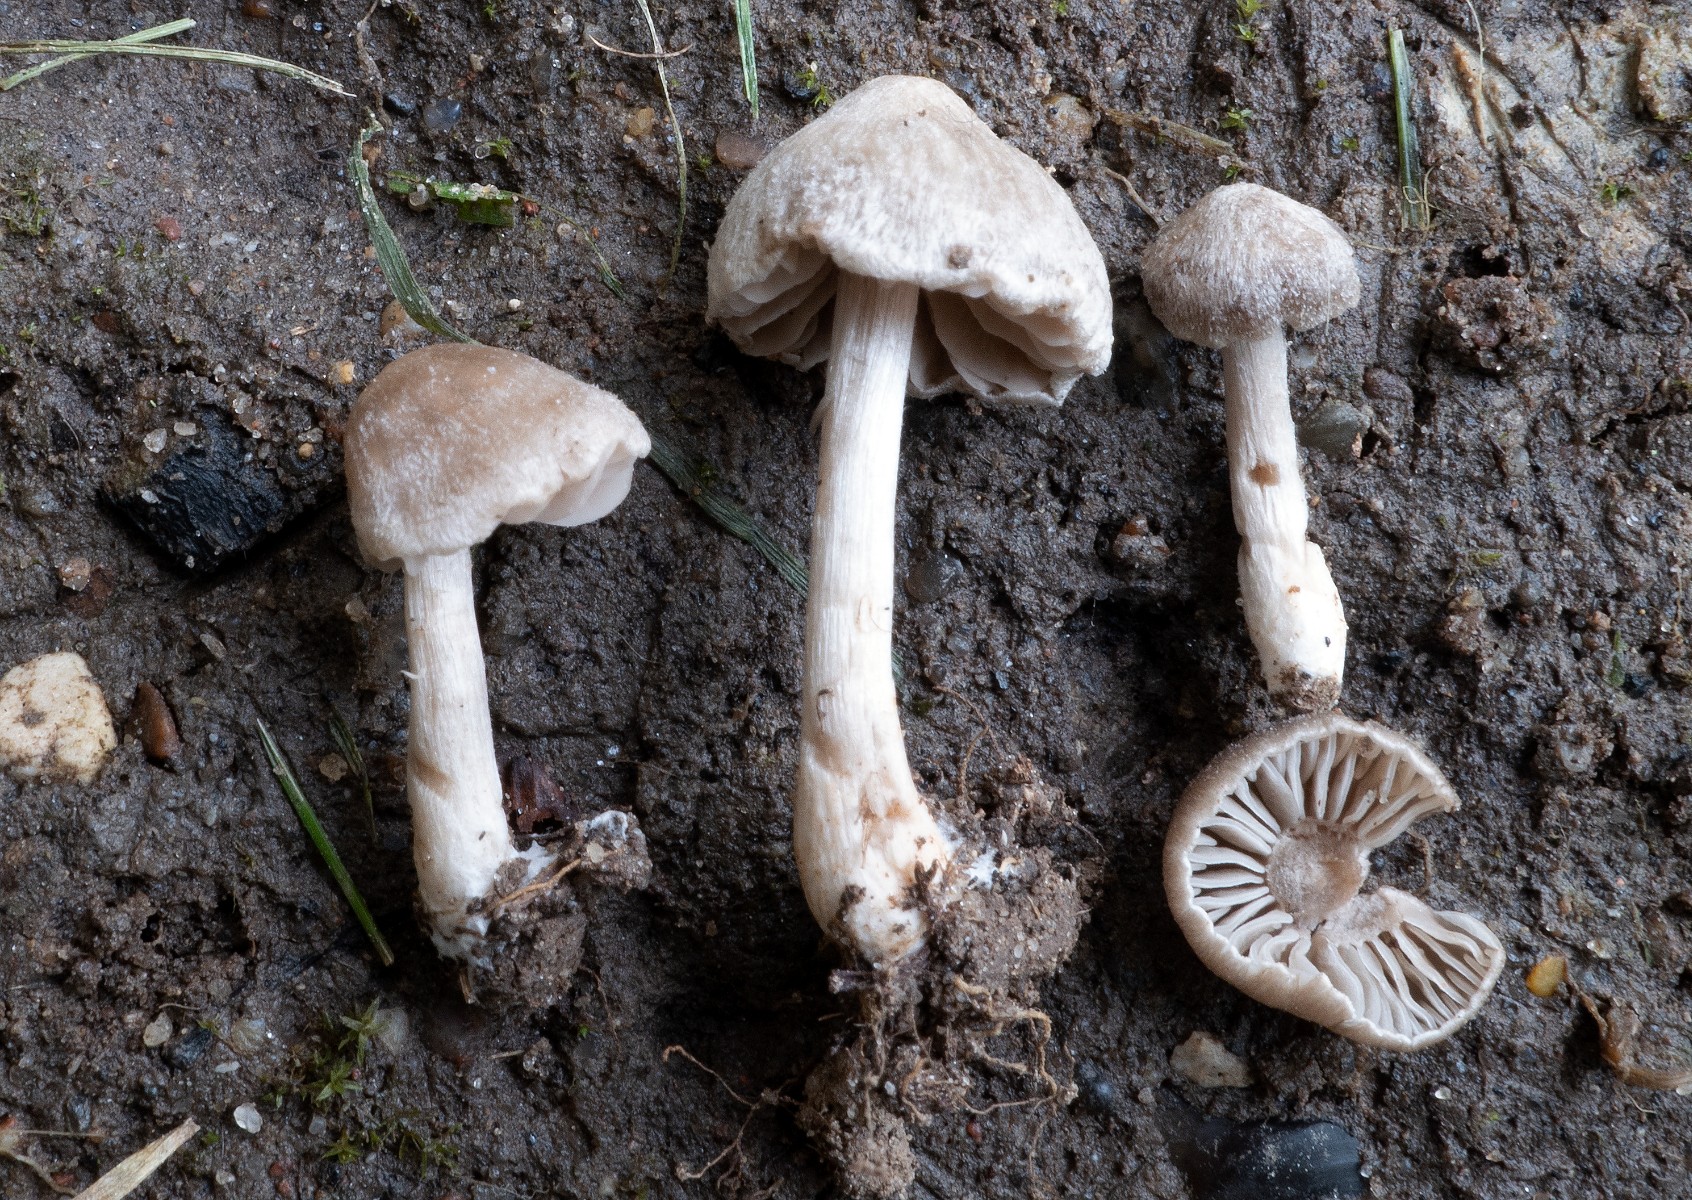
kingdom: Fungi
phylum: Basidiomycota
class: Agaricomycetes
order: Agaricales
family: Entolomataceae
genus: Entoloma
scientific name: Entoloma ameides
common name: sødlig rødblad
